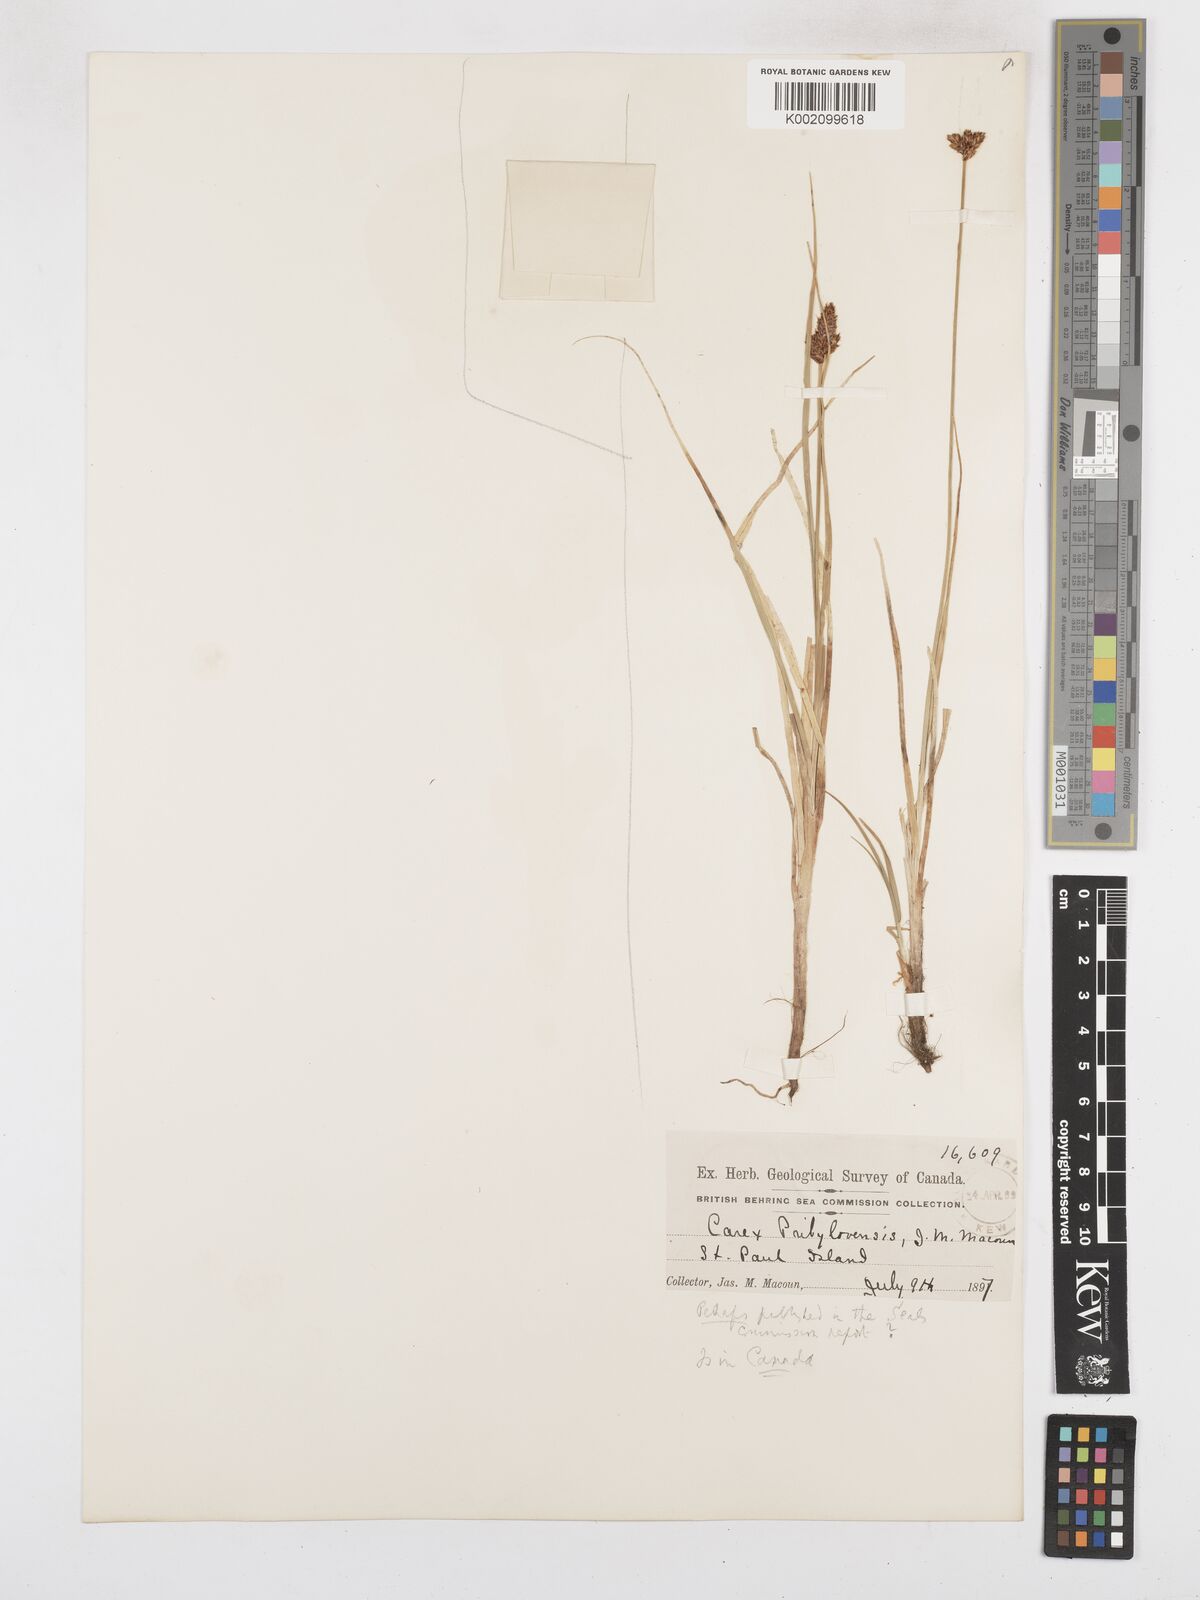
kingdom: Plantae
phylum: Tracheophyta
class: Liliopsida
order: Poales
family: Cyperaceae
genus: Carex
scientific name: Carex glareosa
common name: Clustered sedge
